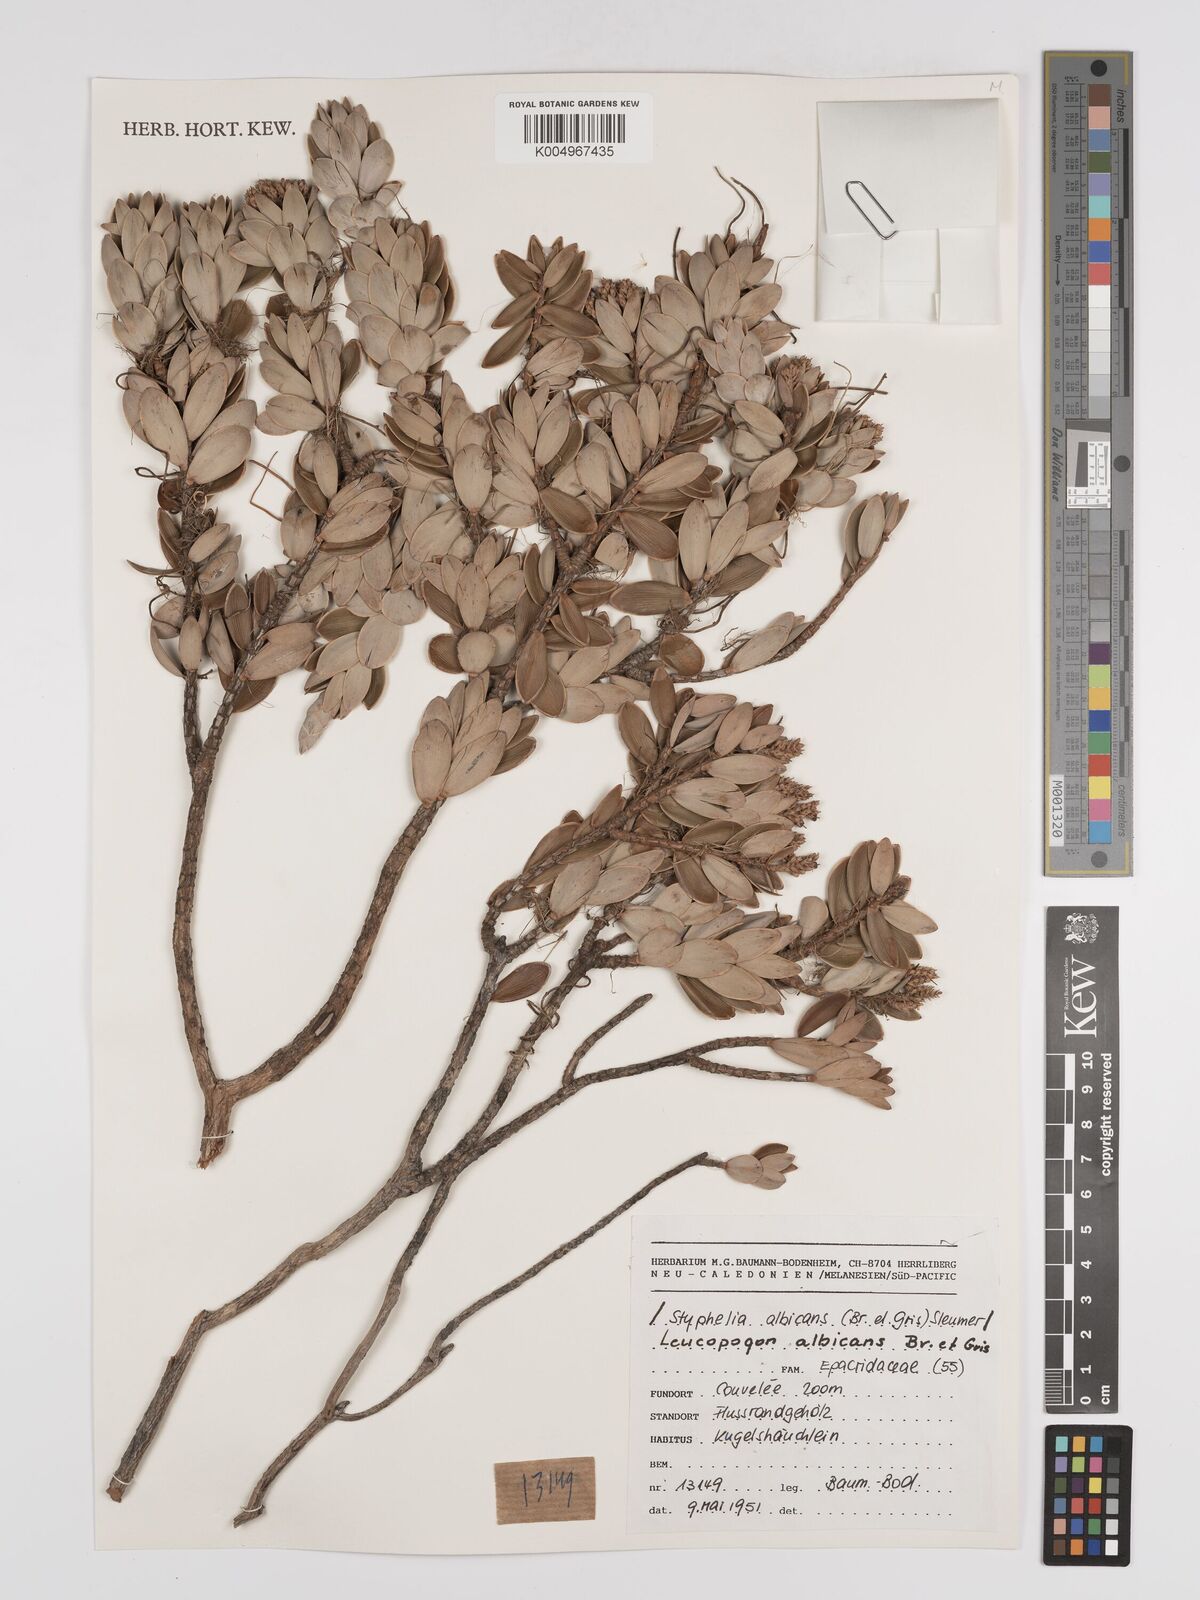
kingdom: Plantae
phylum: Tracheophyta
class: Magnoliopsida
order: Ericales
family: Ericaceae
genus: Cyathopsis
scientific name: Cyathopsis albicans
